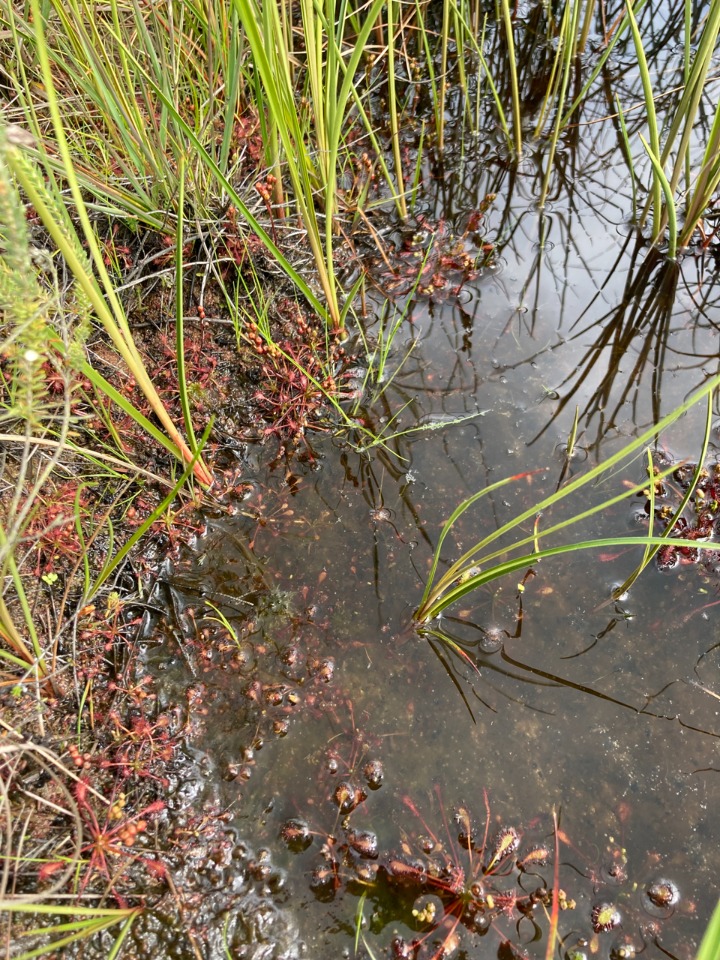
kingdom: Plantae
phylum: Tracheophyta
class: Magnoliopsida
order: Caryophyllales
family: Droseraceae
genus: Drosera
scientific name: Drosera intermedia
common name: Liden soldug
